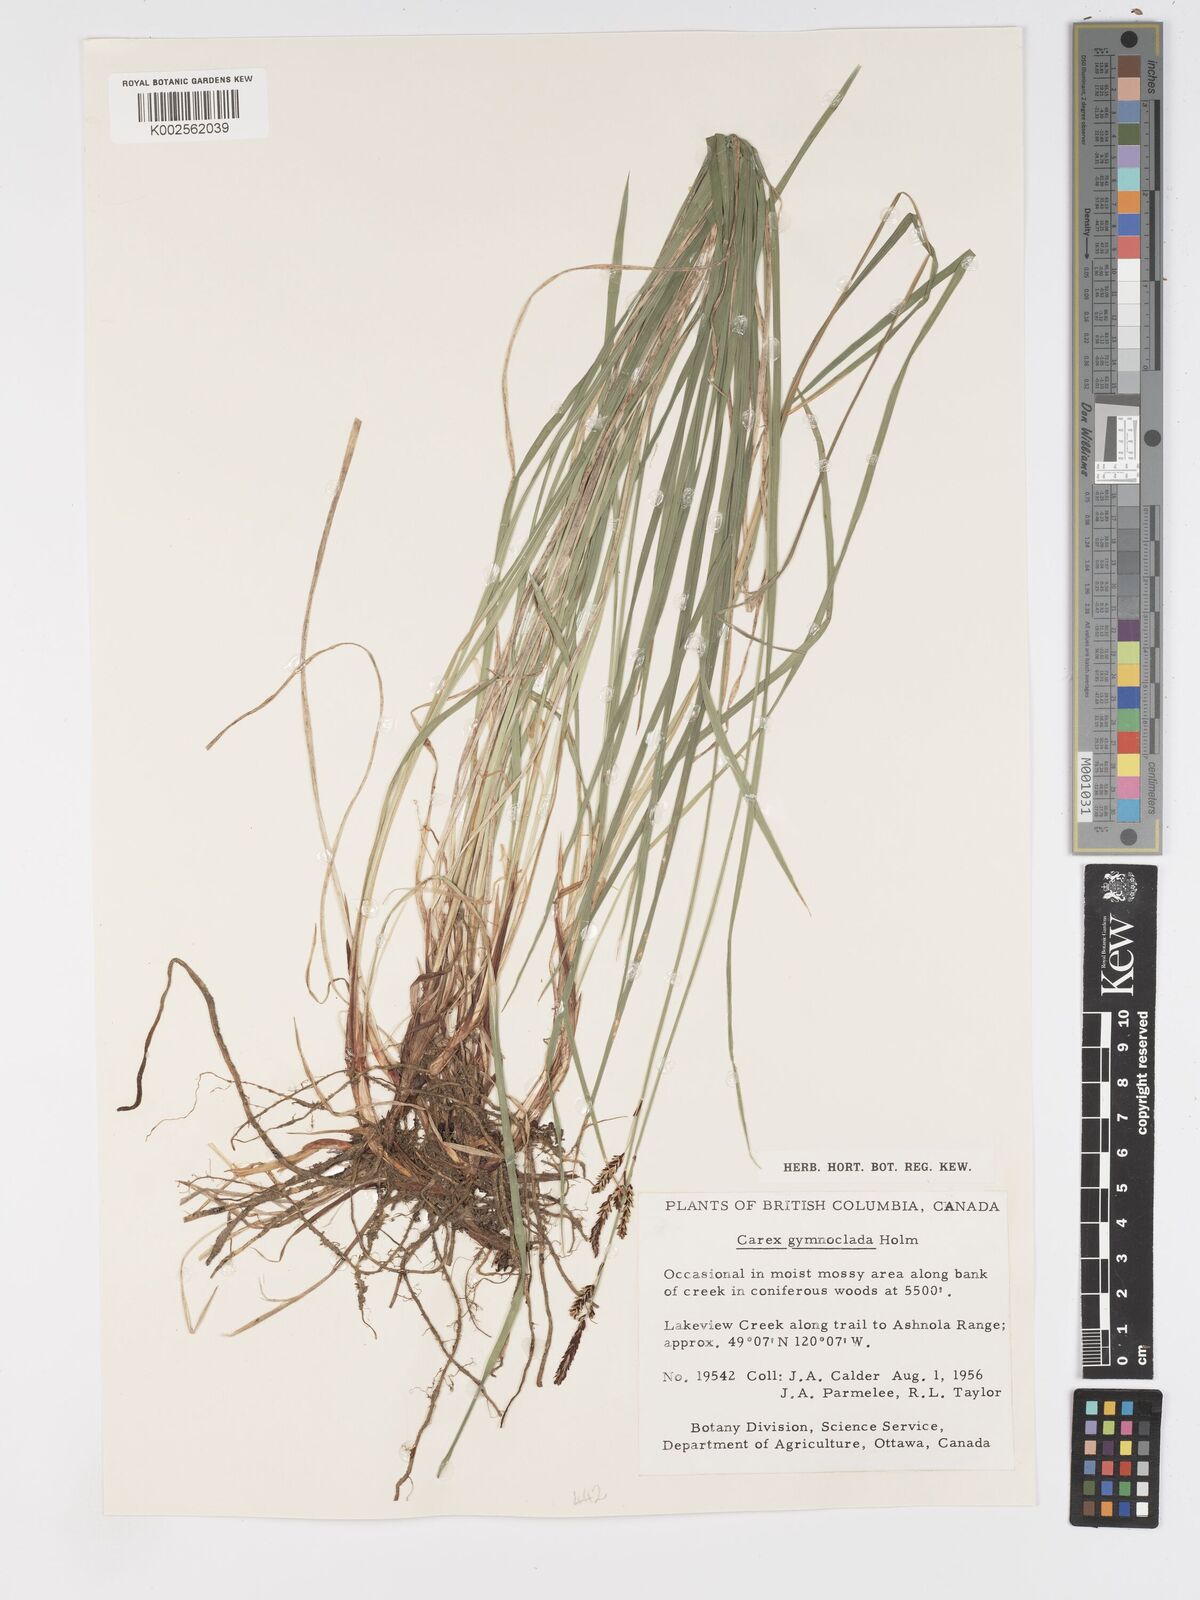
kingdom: Plantae
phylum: Tracheophyta
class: Liliopsida
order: Poales
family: Cyperaceae
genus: Carex
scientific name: Carex scopulorum
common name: Holm's rocky mountain sedge
